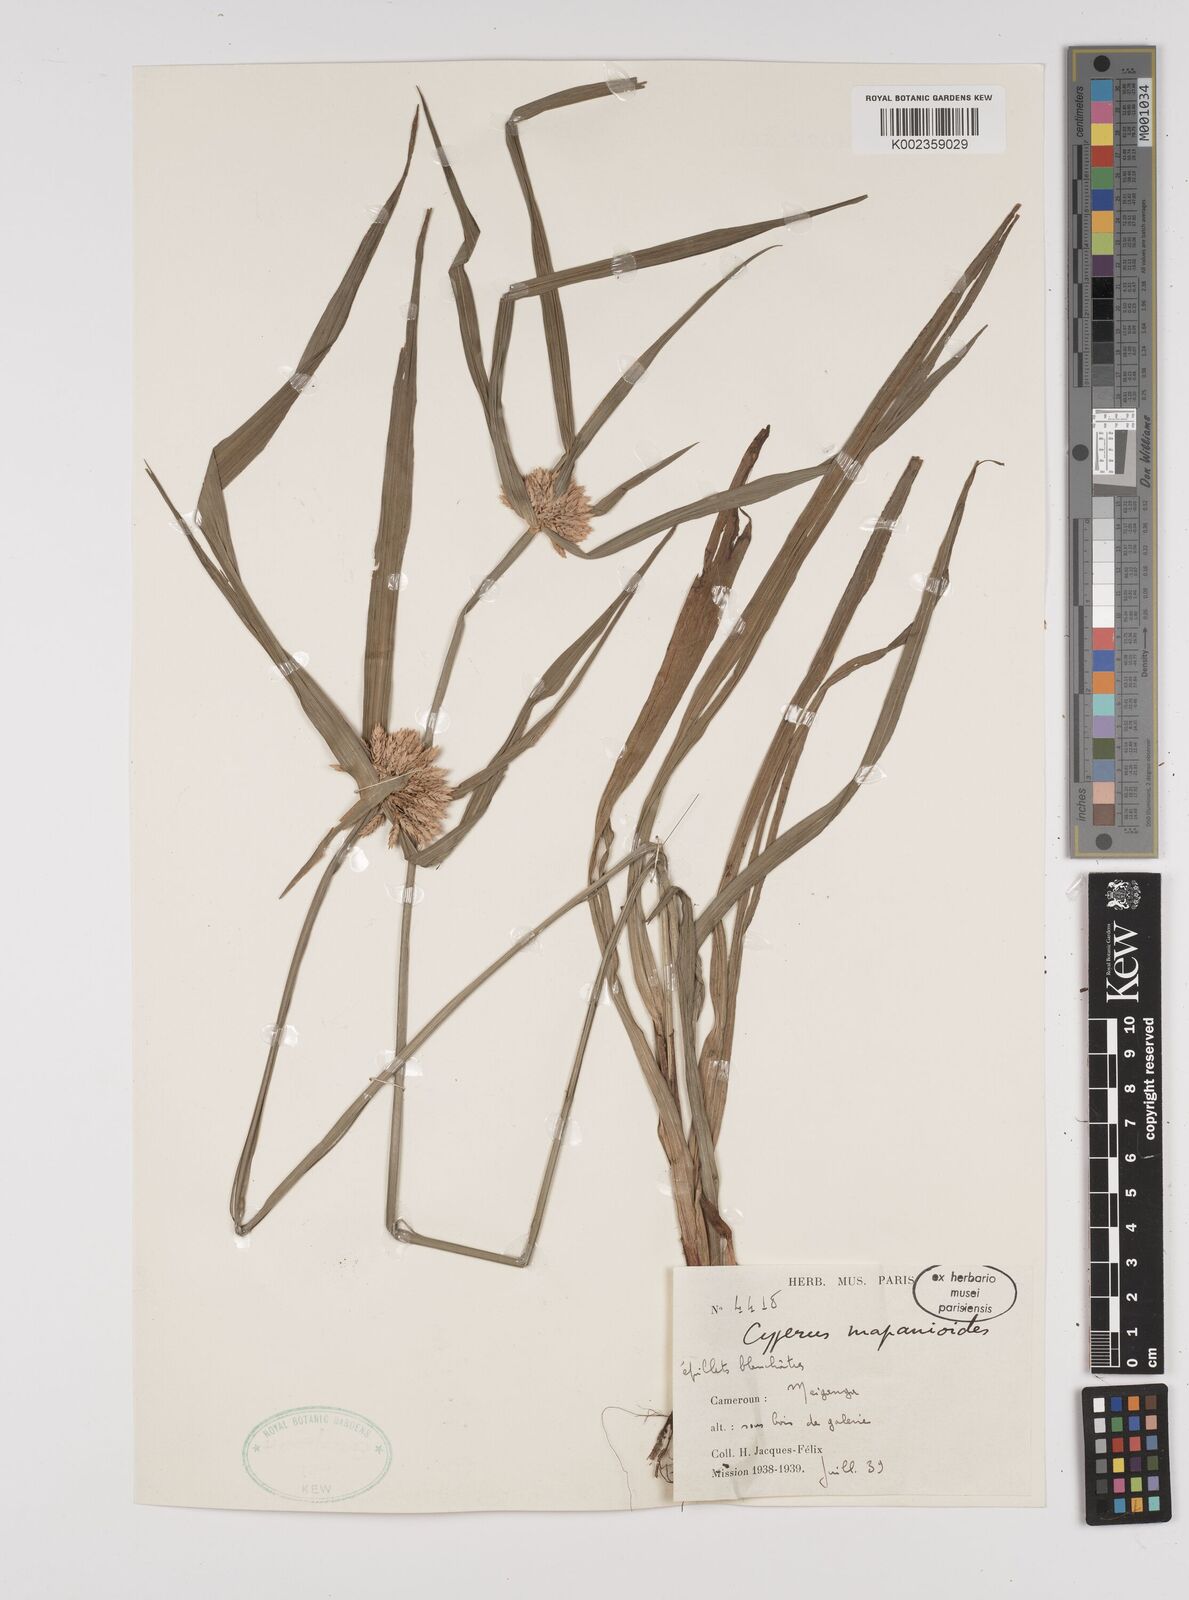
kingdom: Plantae
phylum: Tracheophyta
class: Liliopsida
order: Poales
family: Cyperaceae
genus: Cyperus
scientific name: Cyperus mapanioides
